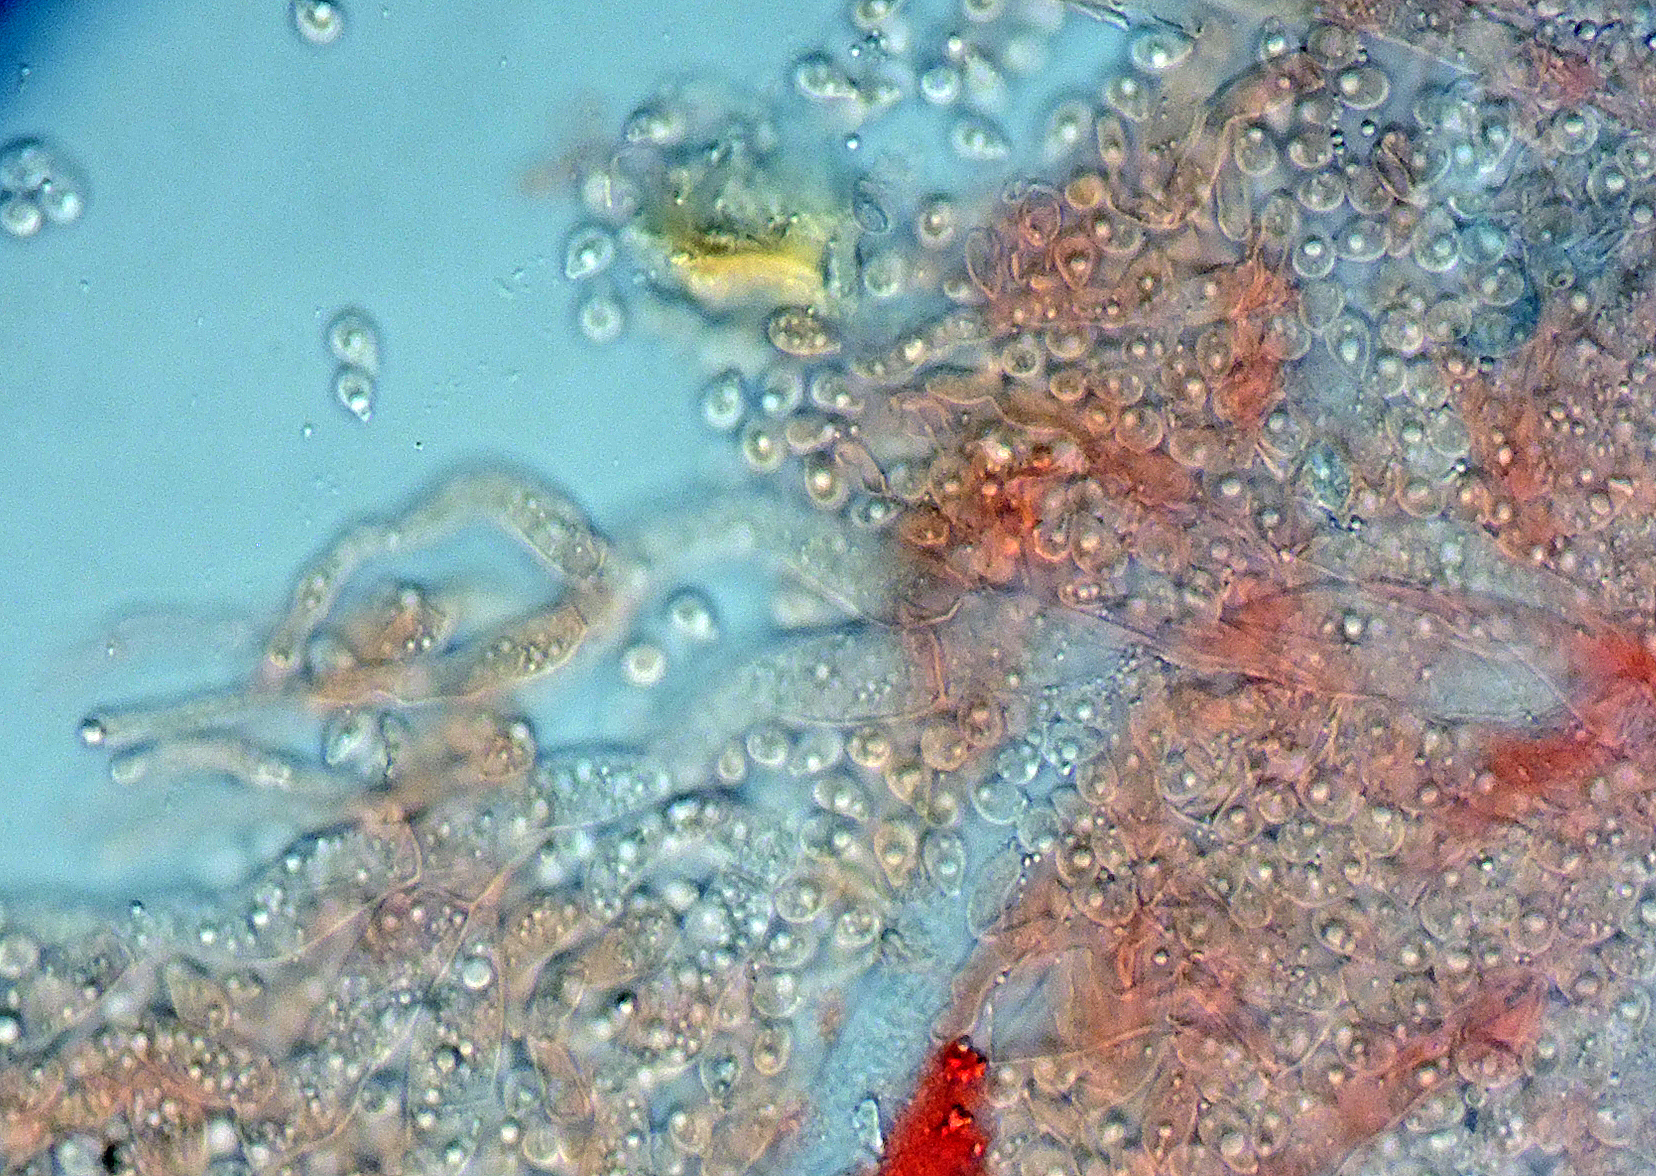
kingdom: Fungi
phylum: Ascomycota
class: Pezizomycetes
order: Pezizales
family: Caloscyphaceae
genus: Caloscypha
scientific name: Caloscypha fulgens
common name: jadebæger
